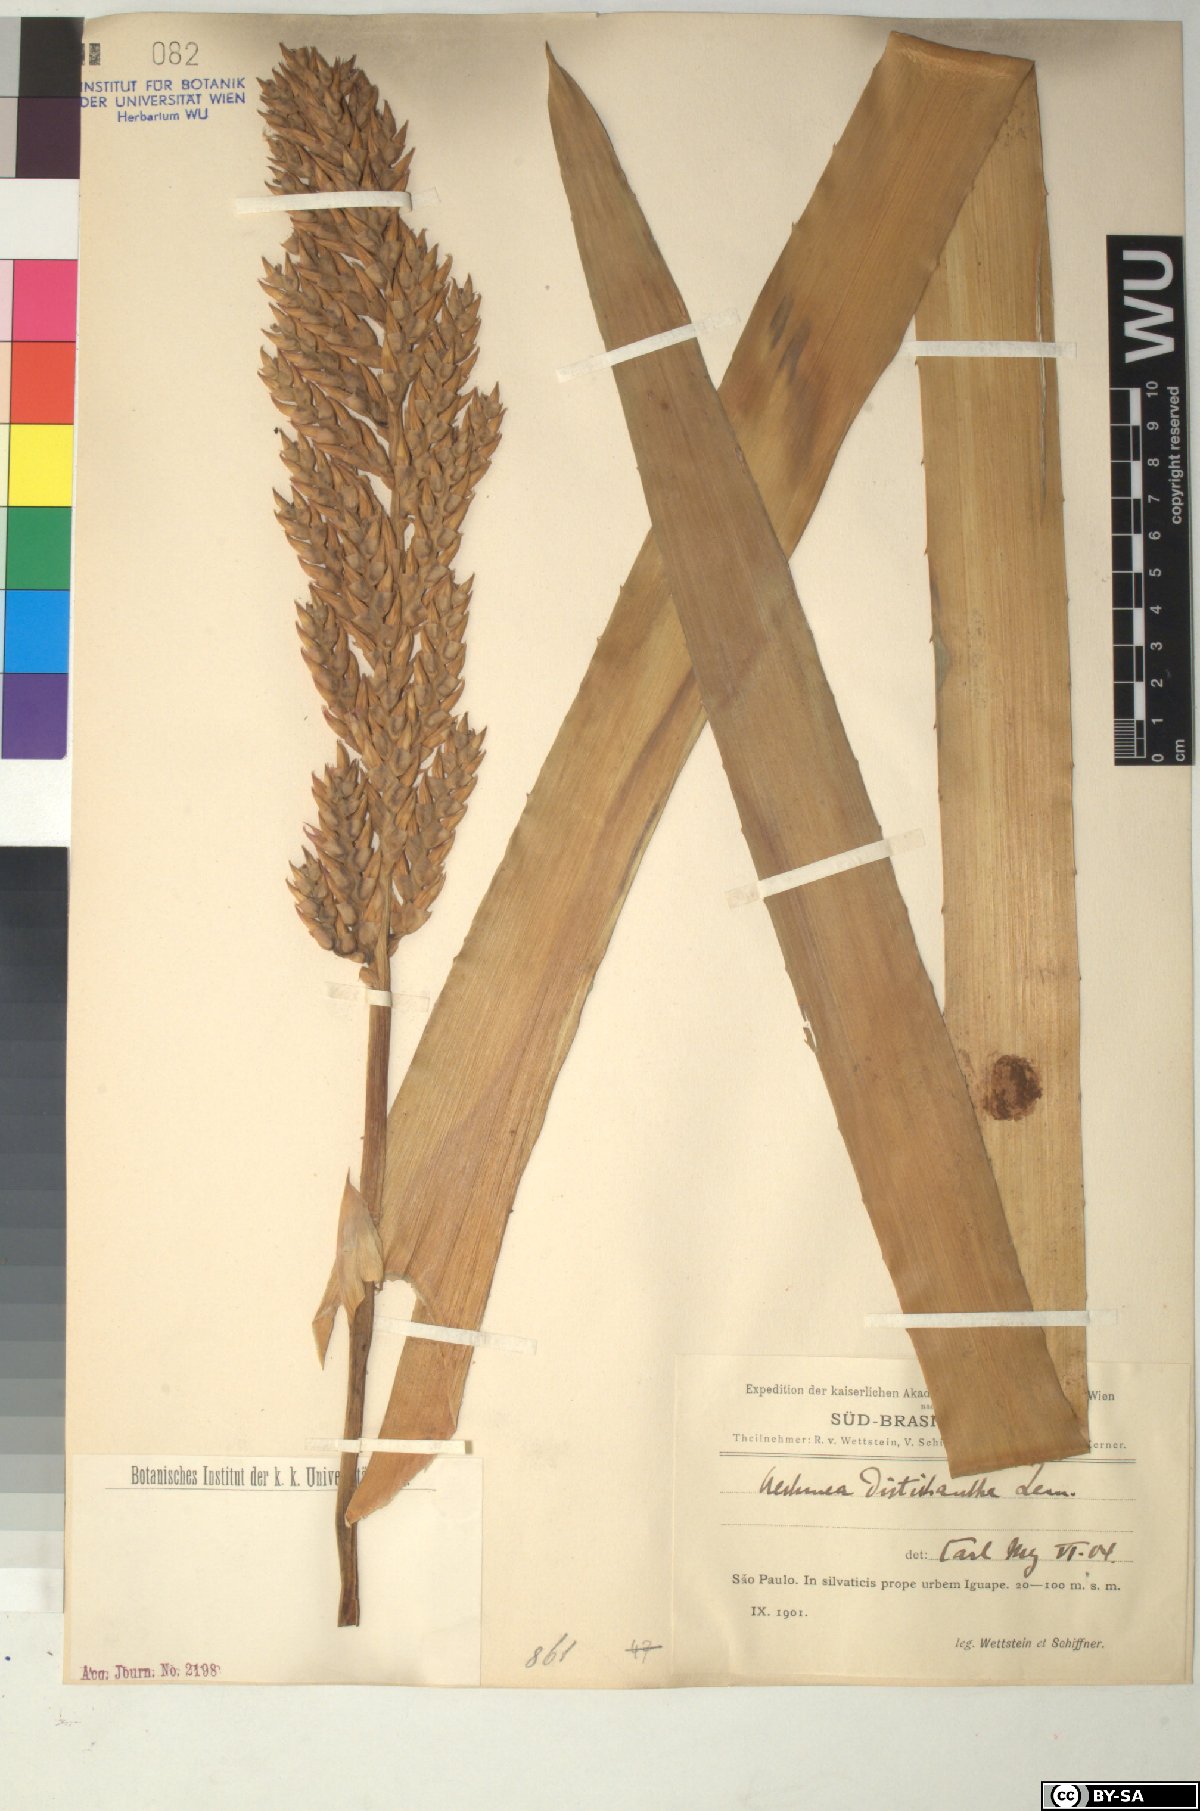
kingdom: Plantae
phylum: Tracheophyta
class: Liliopsida
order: Poales
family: Bromeliaceae
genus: Aechmea
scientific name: Aechmea
